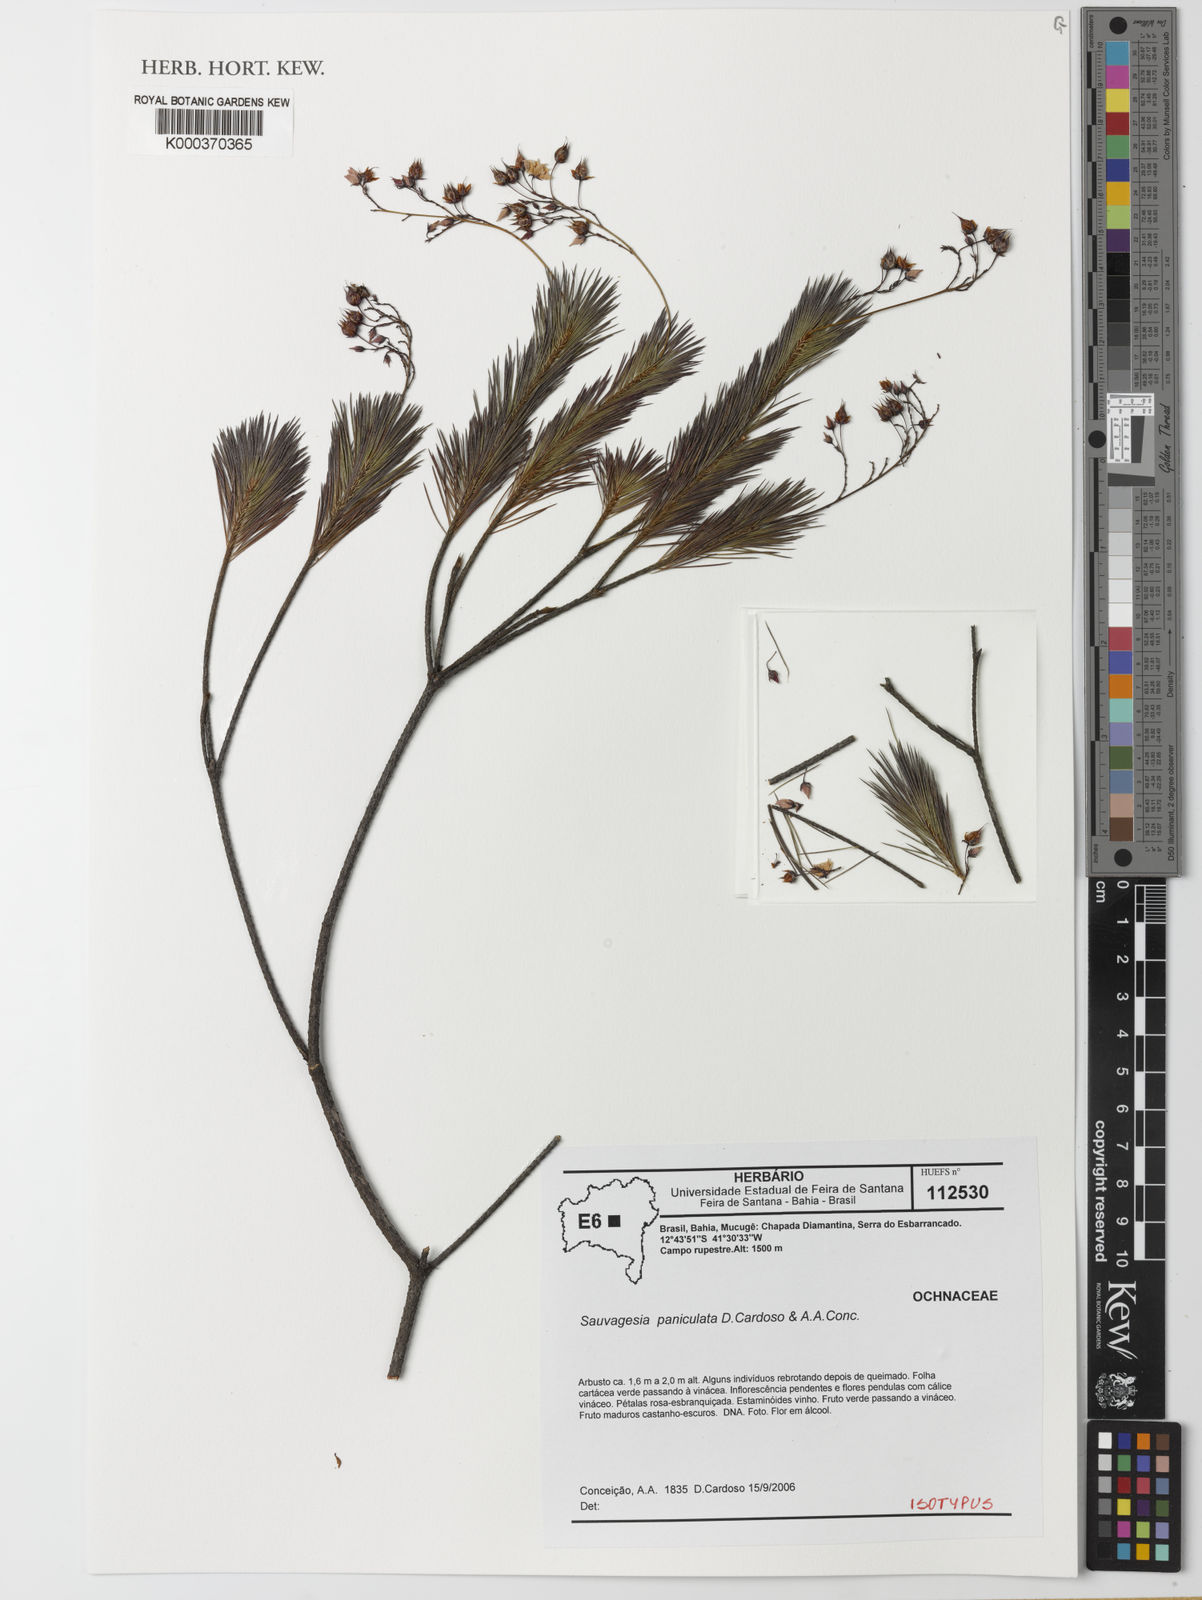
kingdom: Plantae
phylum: Tracheophyta
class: Magnoliopsida
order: Malpighiales
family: Ochnaceae
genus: Sauvagesia
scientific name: Sauvagesia paniculata
